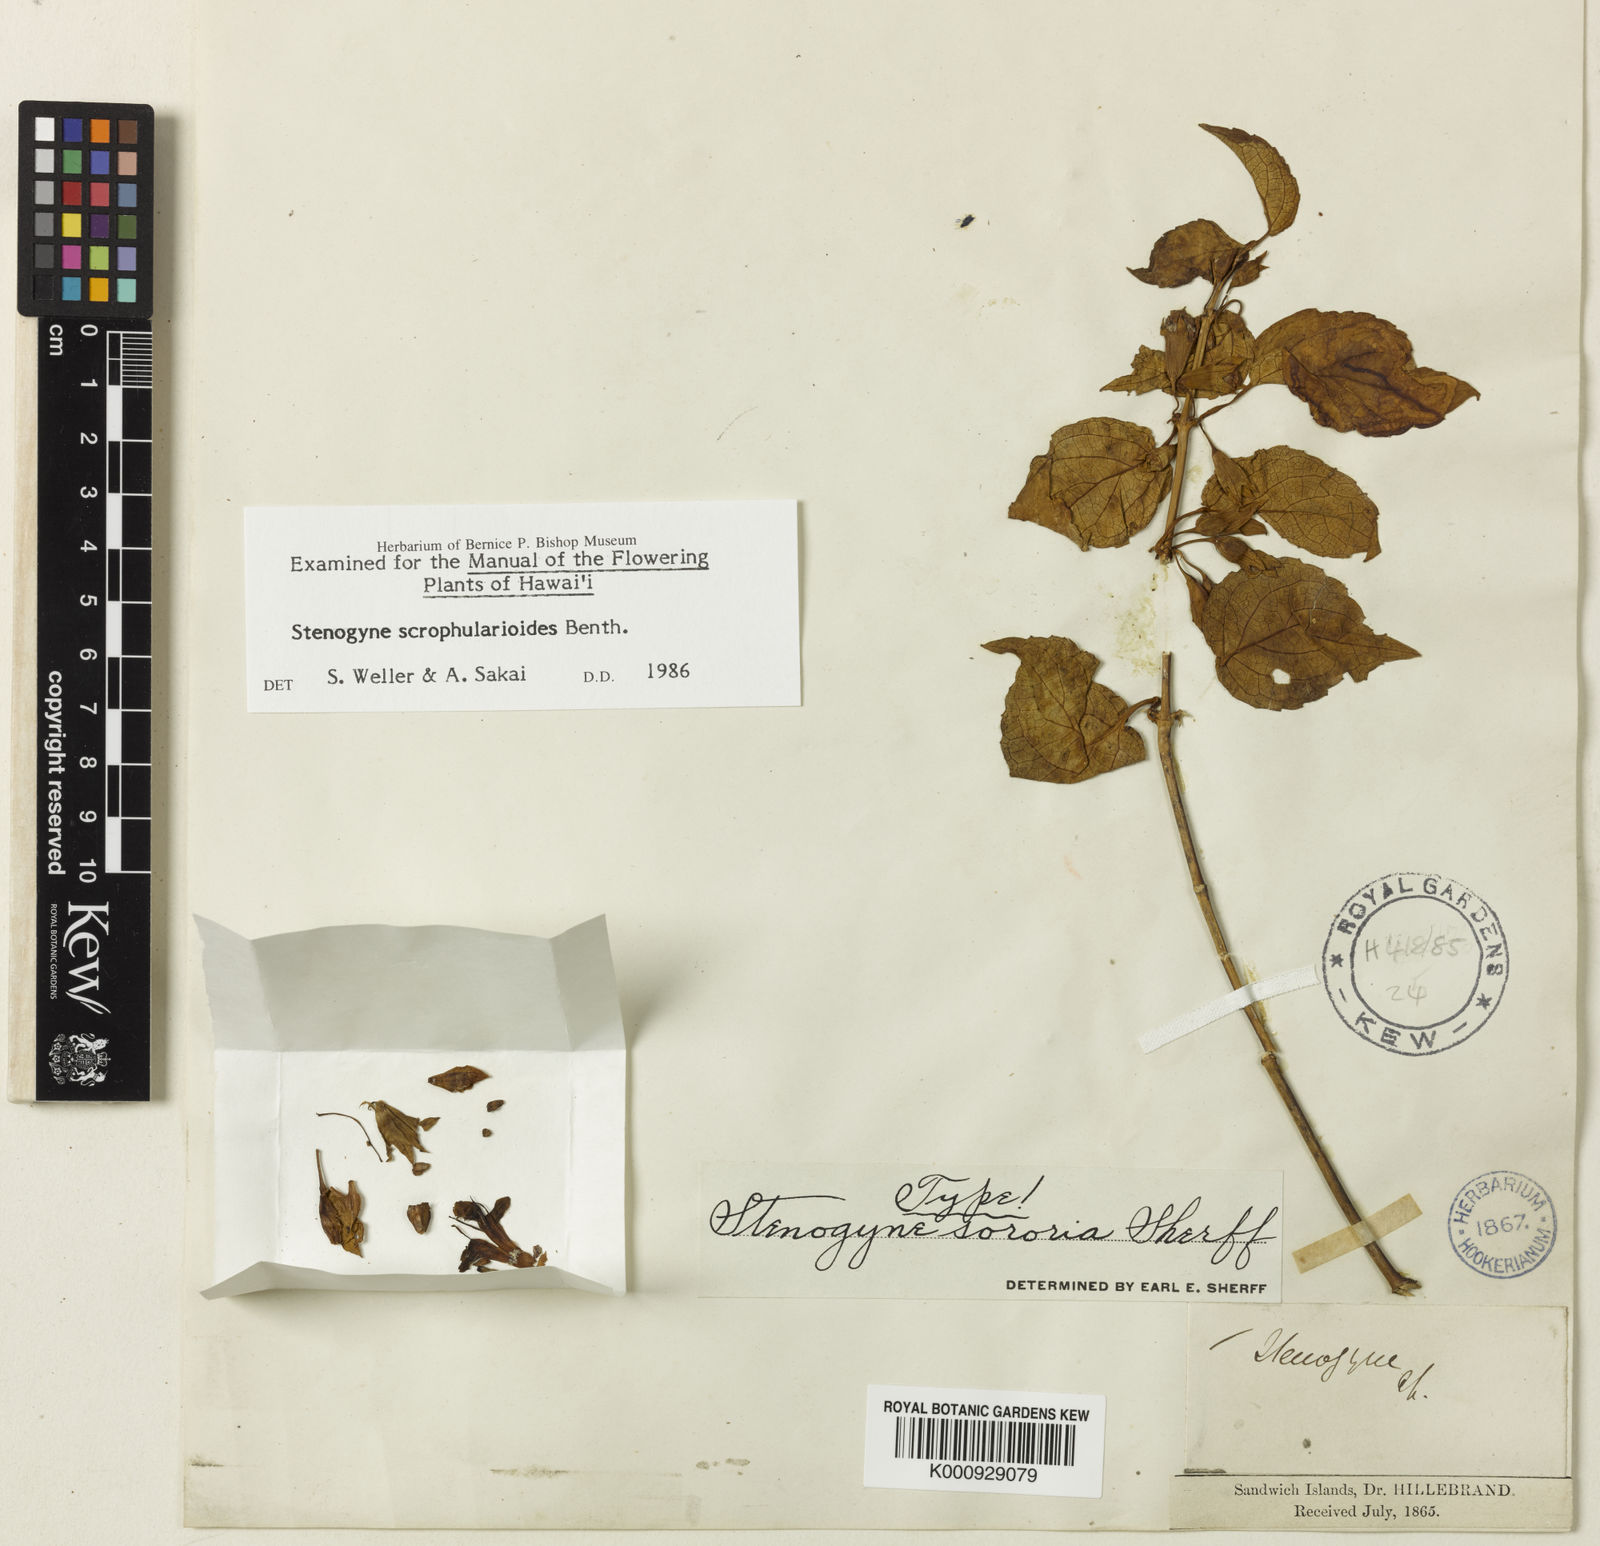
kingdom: Plantae
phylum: Tracheophyta
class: Magnoliopsida
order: Lamiales
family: Lamiaceae
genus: Stenogyne
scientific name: Stenogyne scrophularioides
